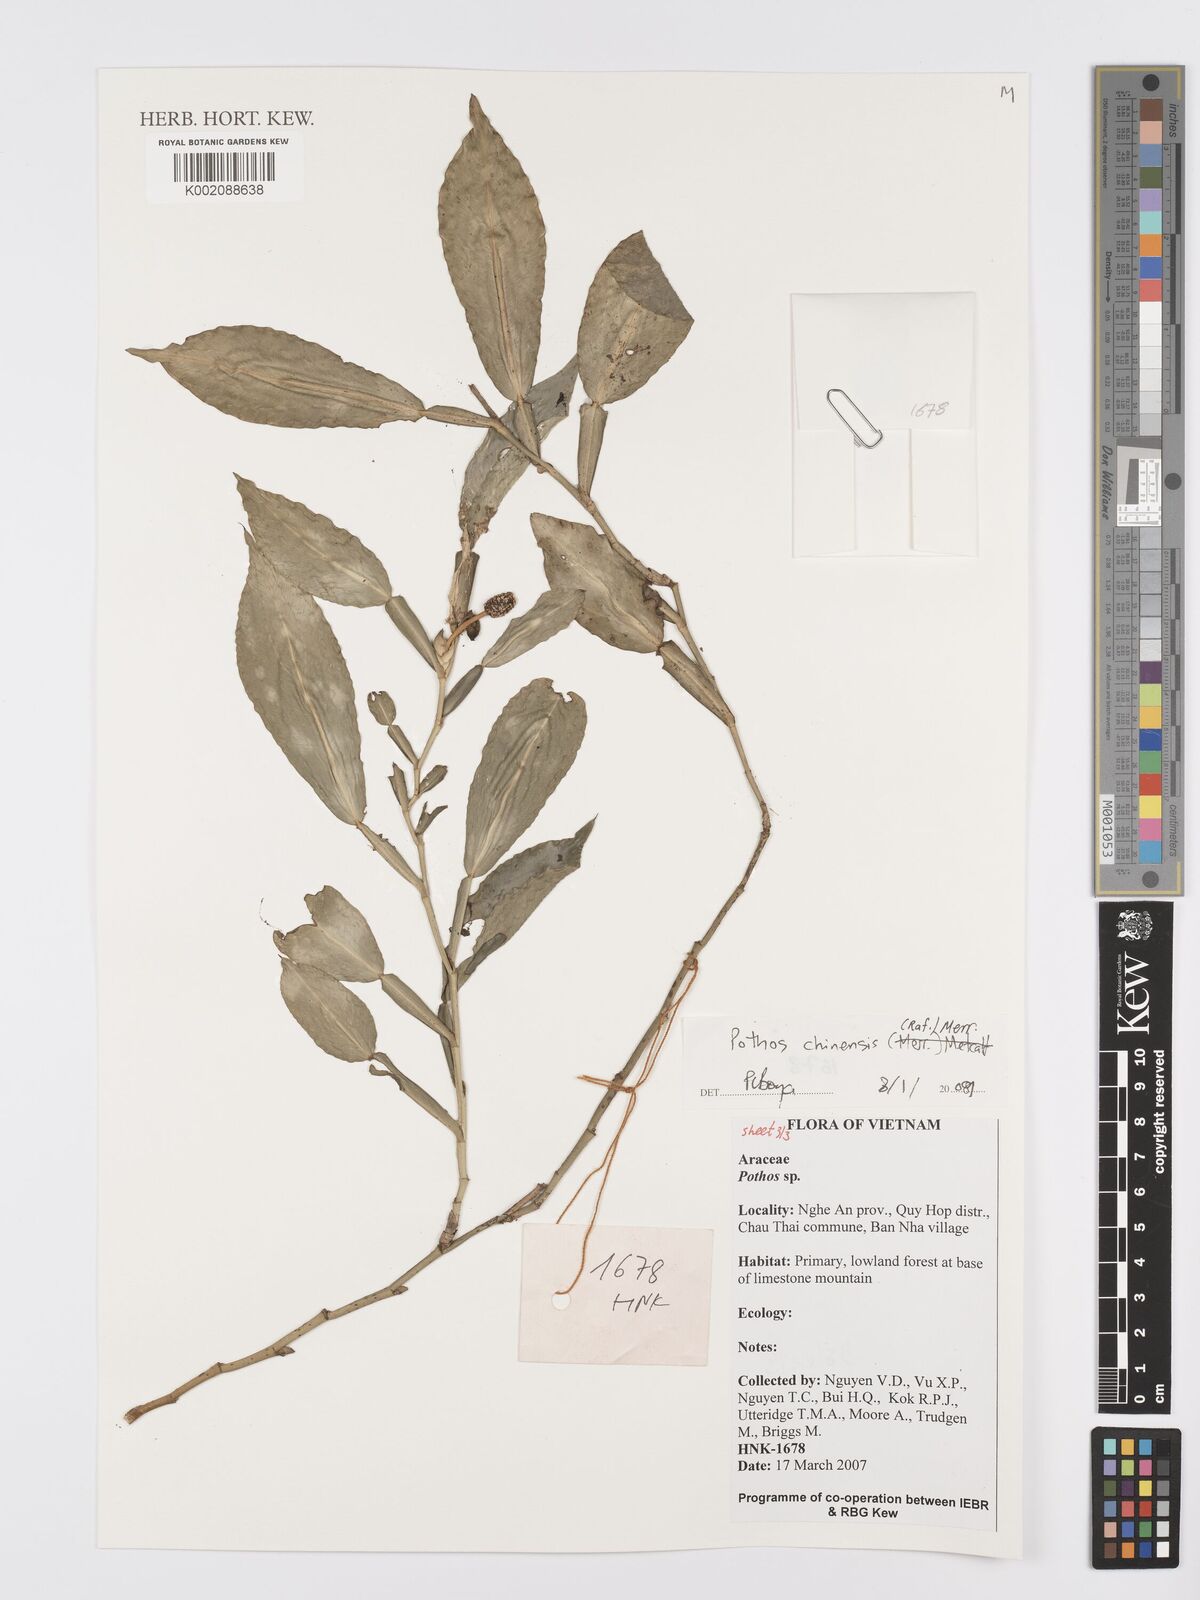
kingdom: Plantae
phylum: Tracheophyta
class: Liliopsida
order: Alismatales
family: Araceae
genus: Pothos
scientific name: Pothos chinensis
